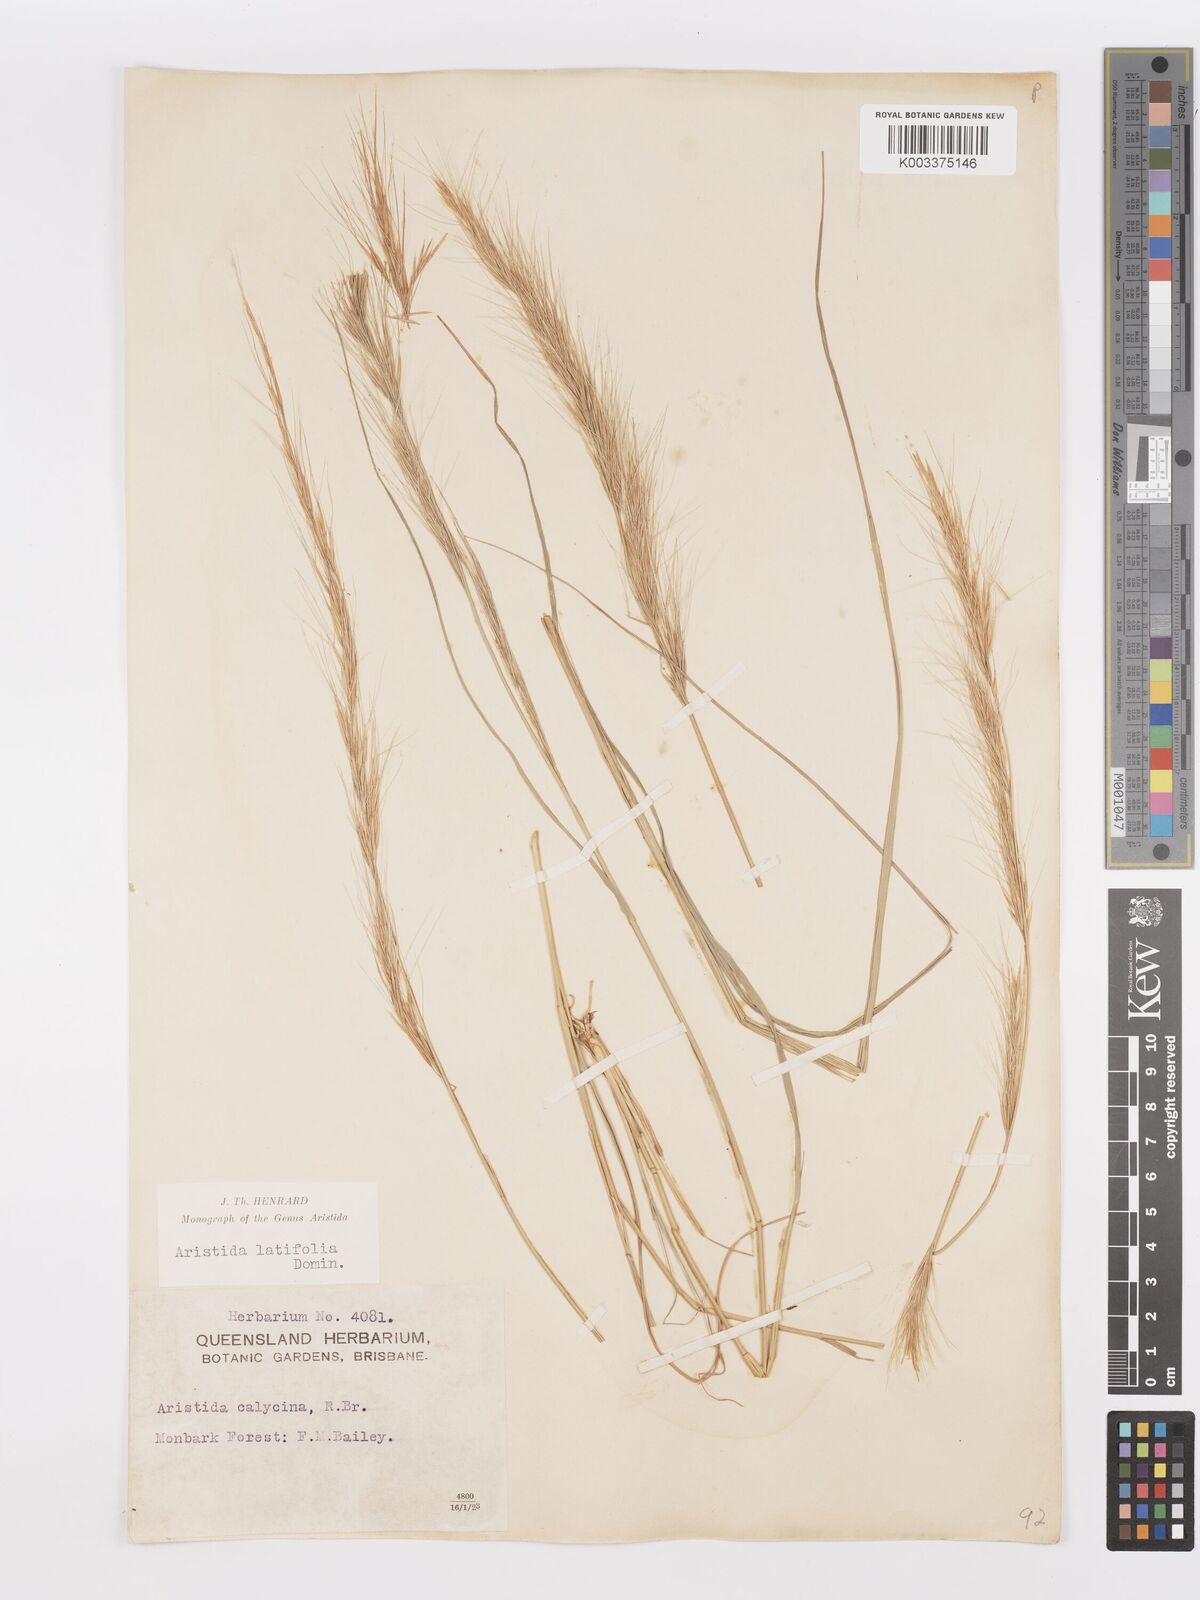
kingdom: Plantae
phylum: Tracheophyta
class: Liliopsida
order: Poales
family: Poaceae
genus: Aristida
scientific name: Aristida latifolia
